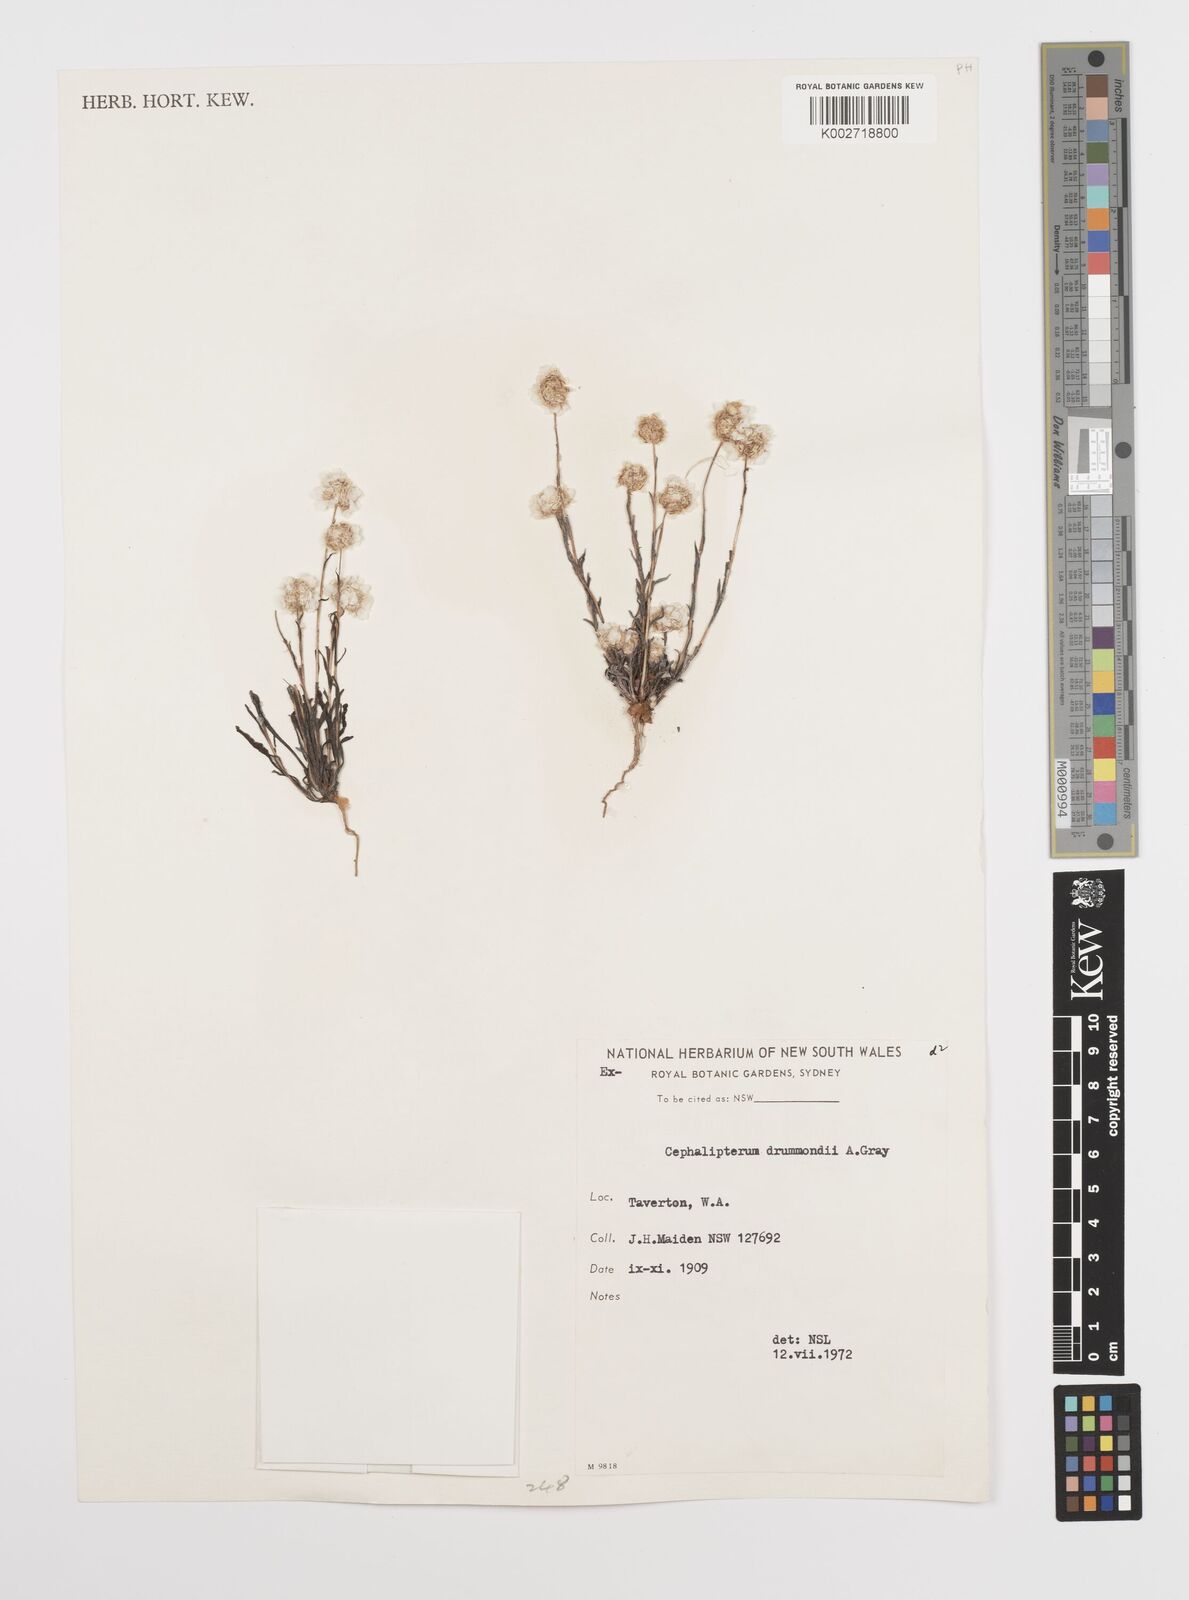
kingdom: Plantae
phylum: Tracheophyta
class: Magnoliopsida
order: Asterales
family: Asteraceae
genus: Cephalipterum
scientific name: Cephalipterum drummondii
